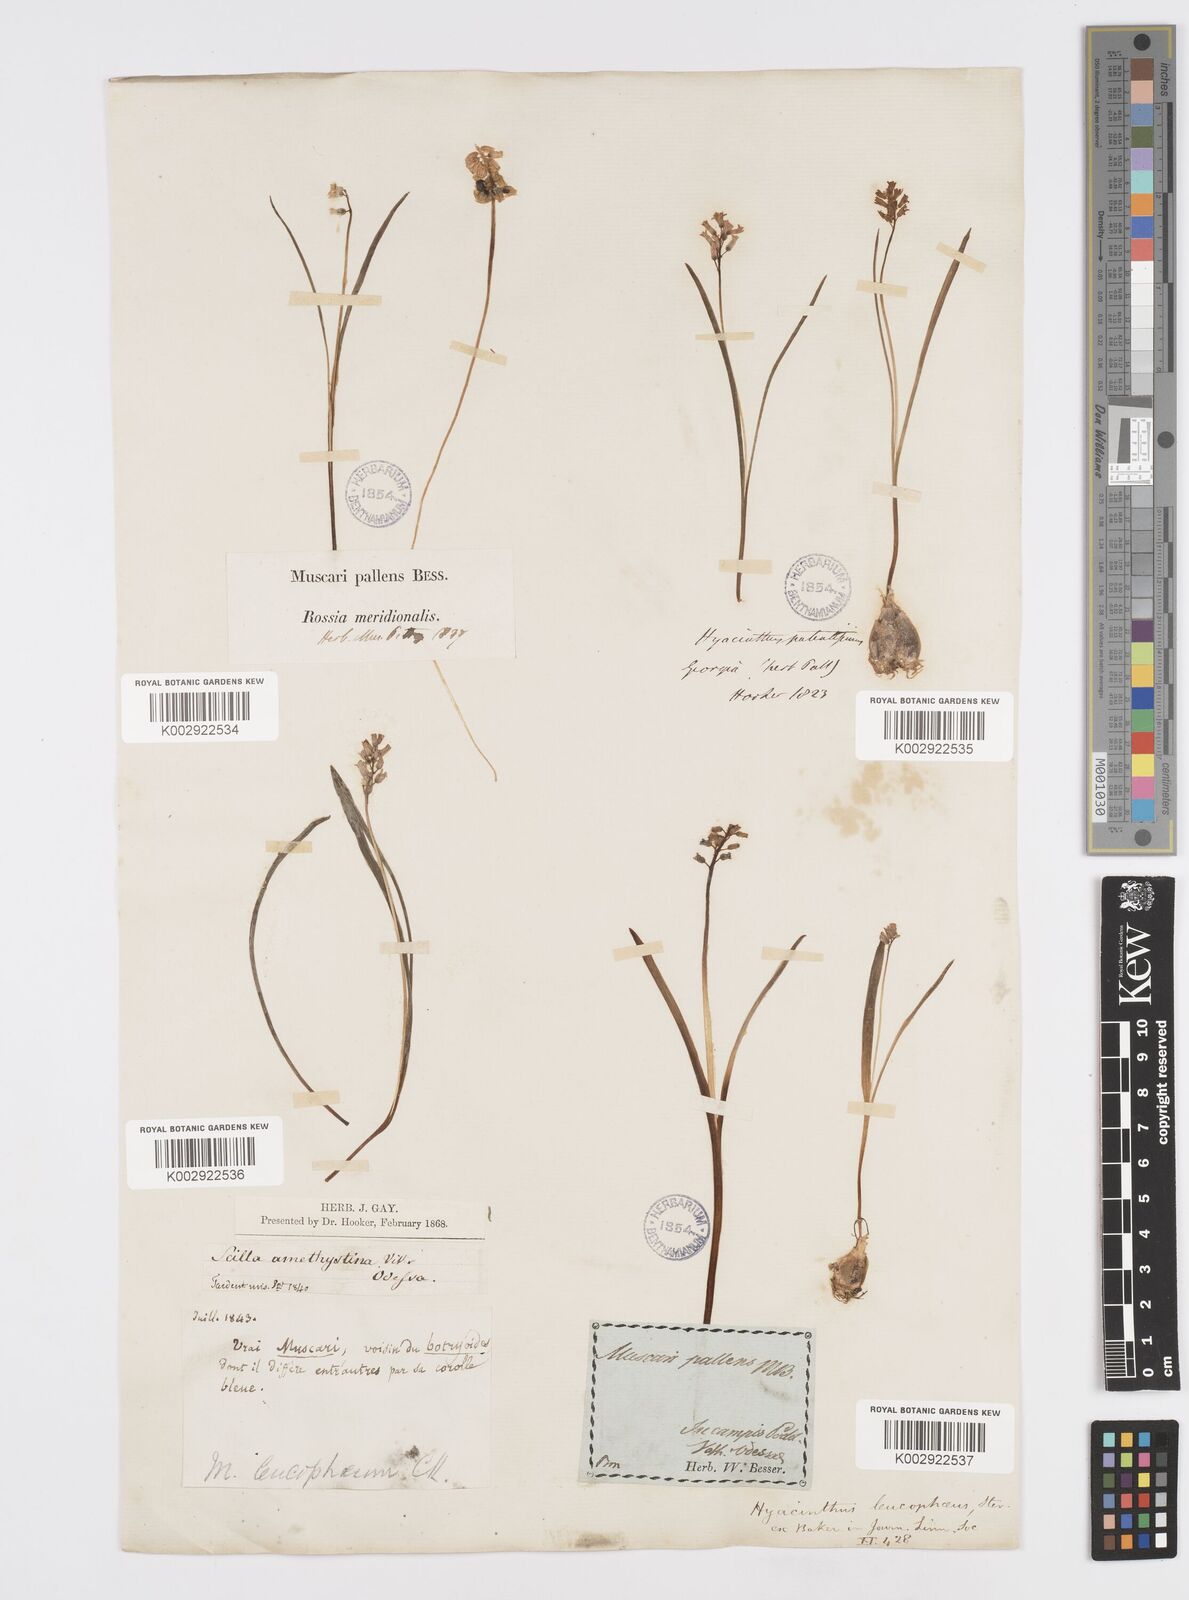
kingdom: Plantae
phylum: Tracheophyta
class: Liliopsida
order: Asparagales
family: Asparagaceae
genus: Hyacinthella
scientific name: Hyacinthella leucophaea
